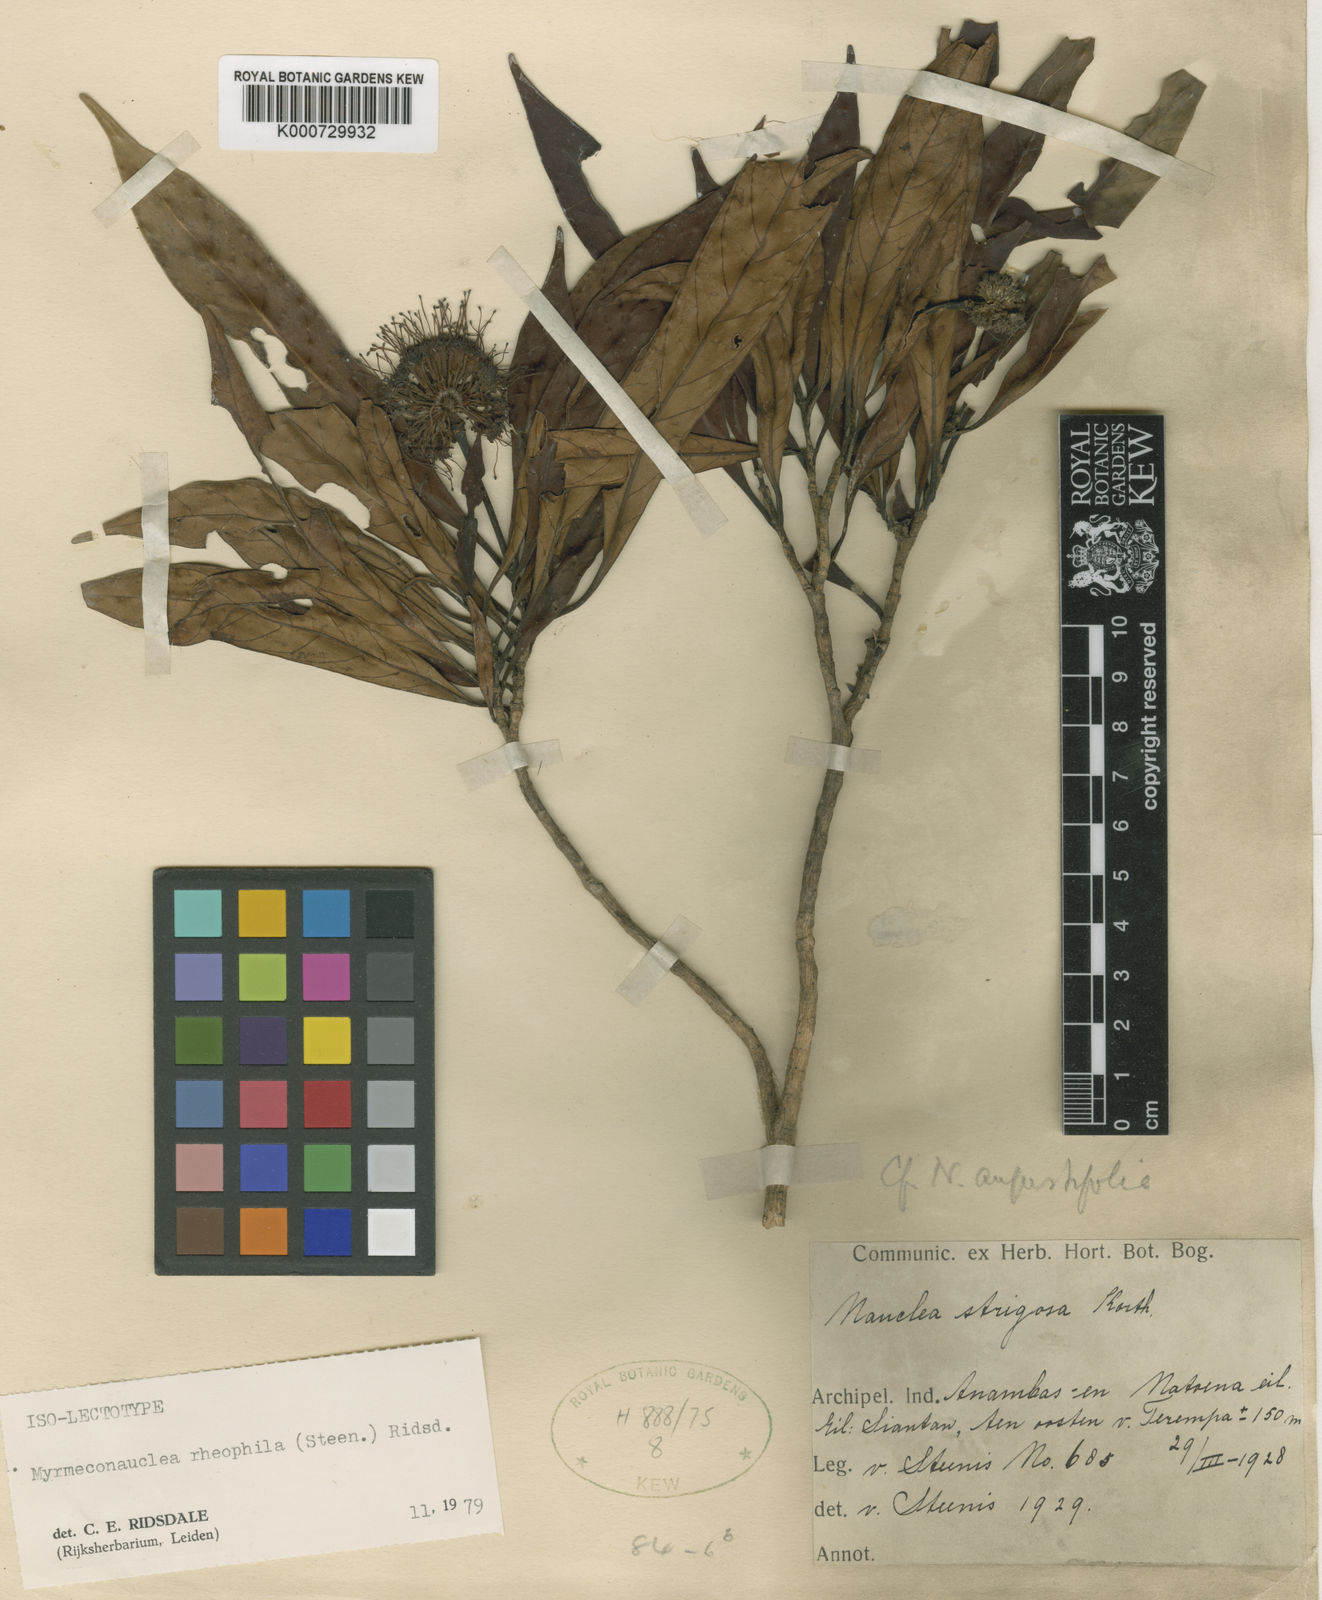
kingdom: Plantae
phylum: Tracheophyta
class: Magnoliopsida
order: Gentianales
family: Rubiaceae
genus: Myrmeconauclea
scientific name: Myrmeconauclea rheophila
